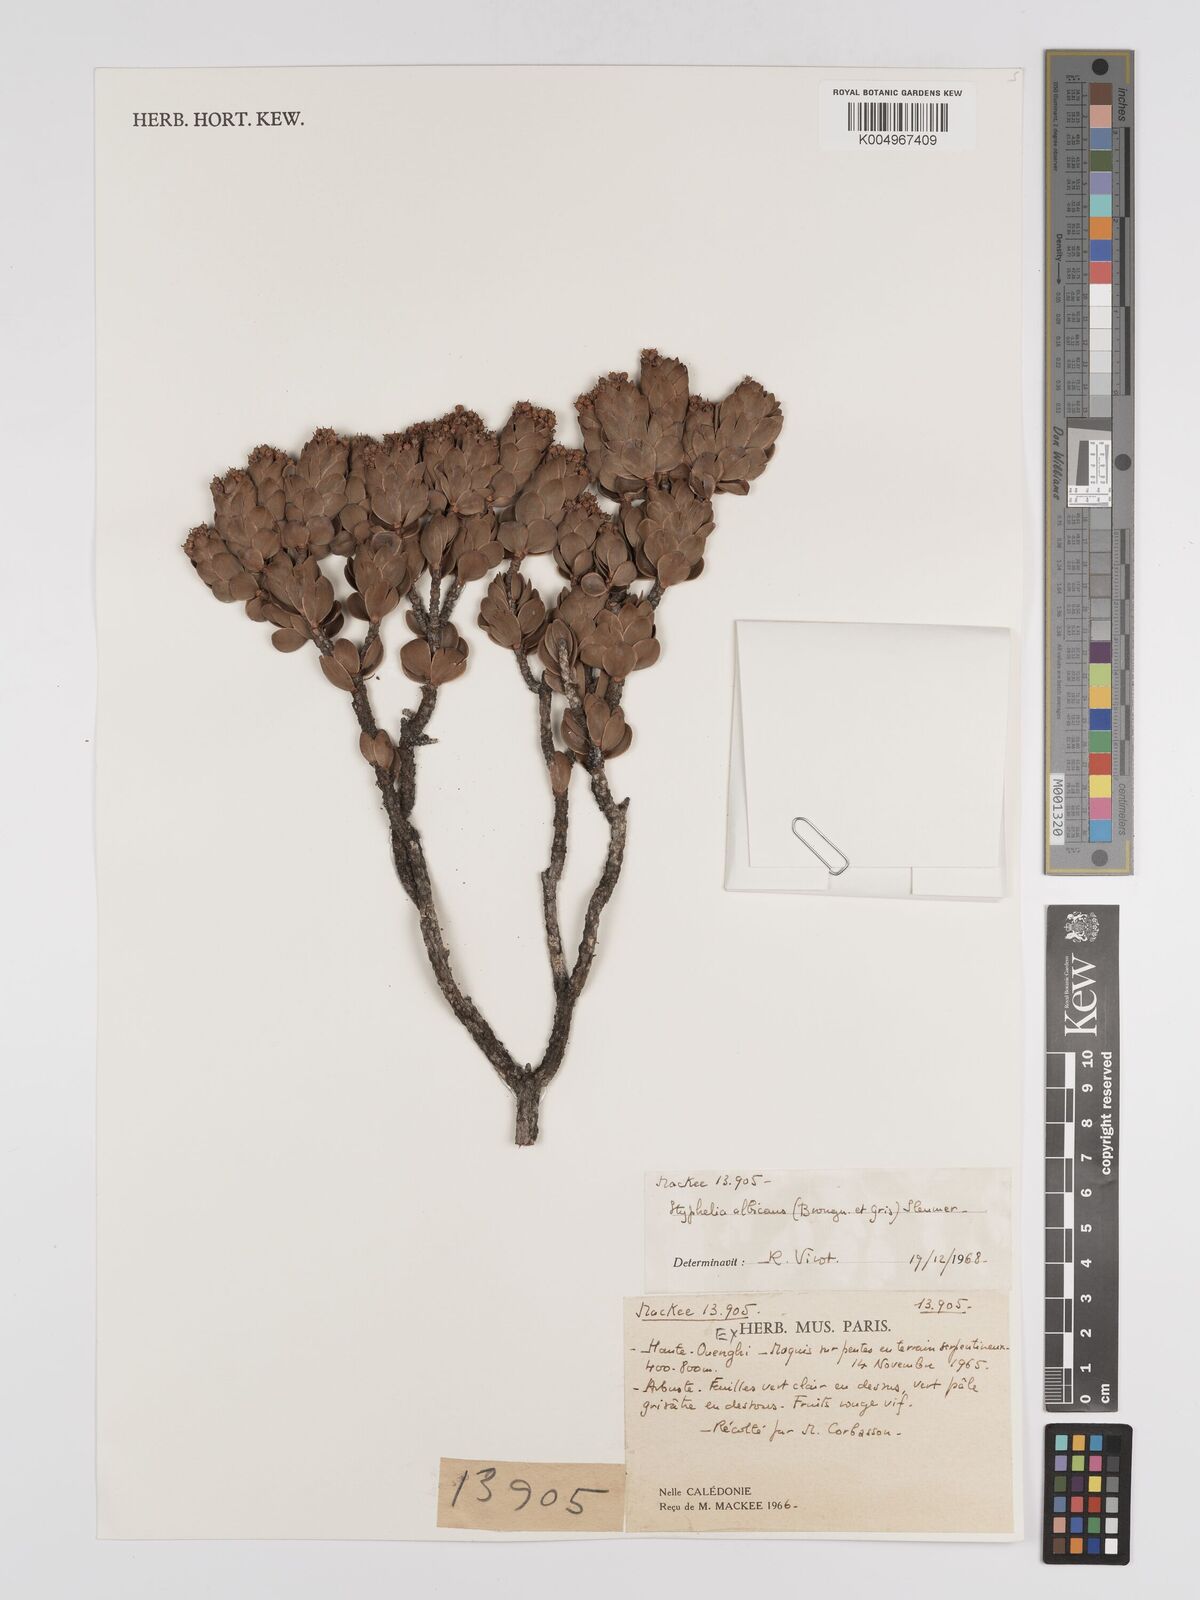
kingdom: Plantae
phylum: Tracheophyta
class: Magnoliopsida
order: Ericales
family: Ericaceae
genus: Cyathopsis
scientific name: Cyathopsis albicans
